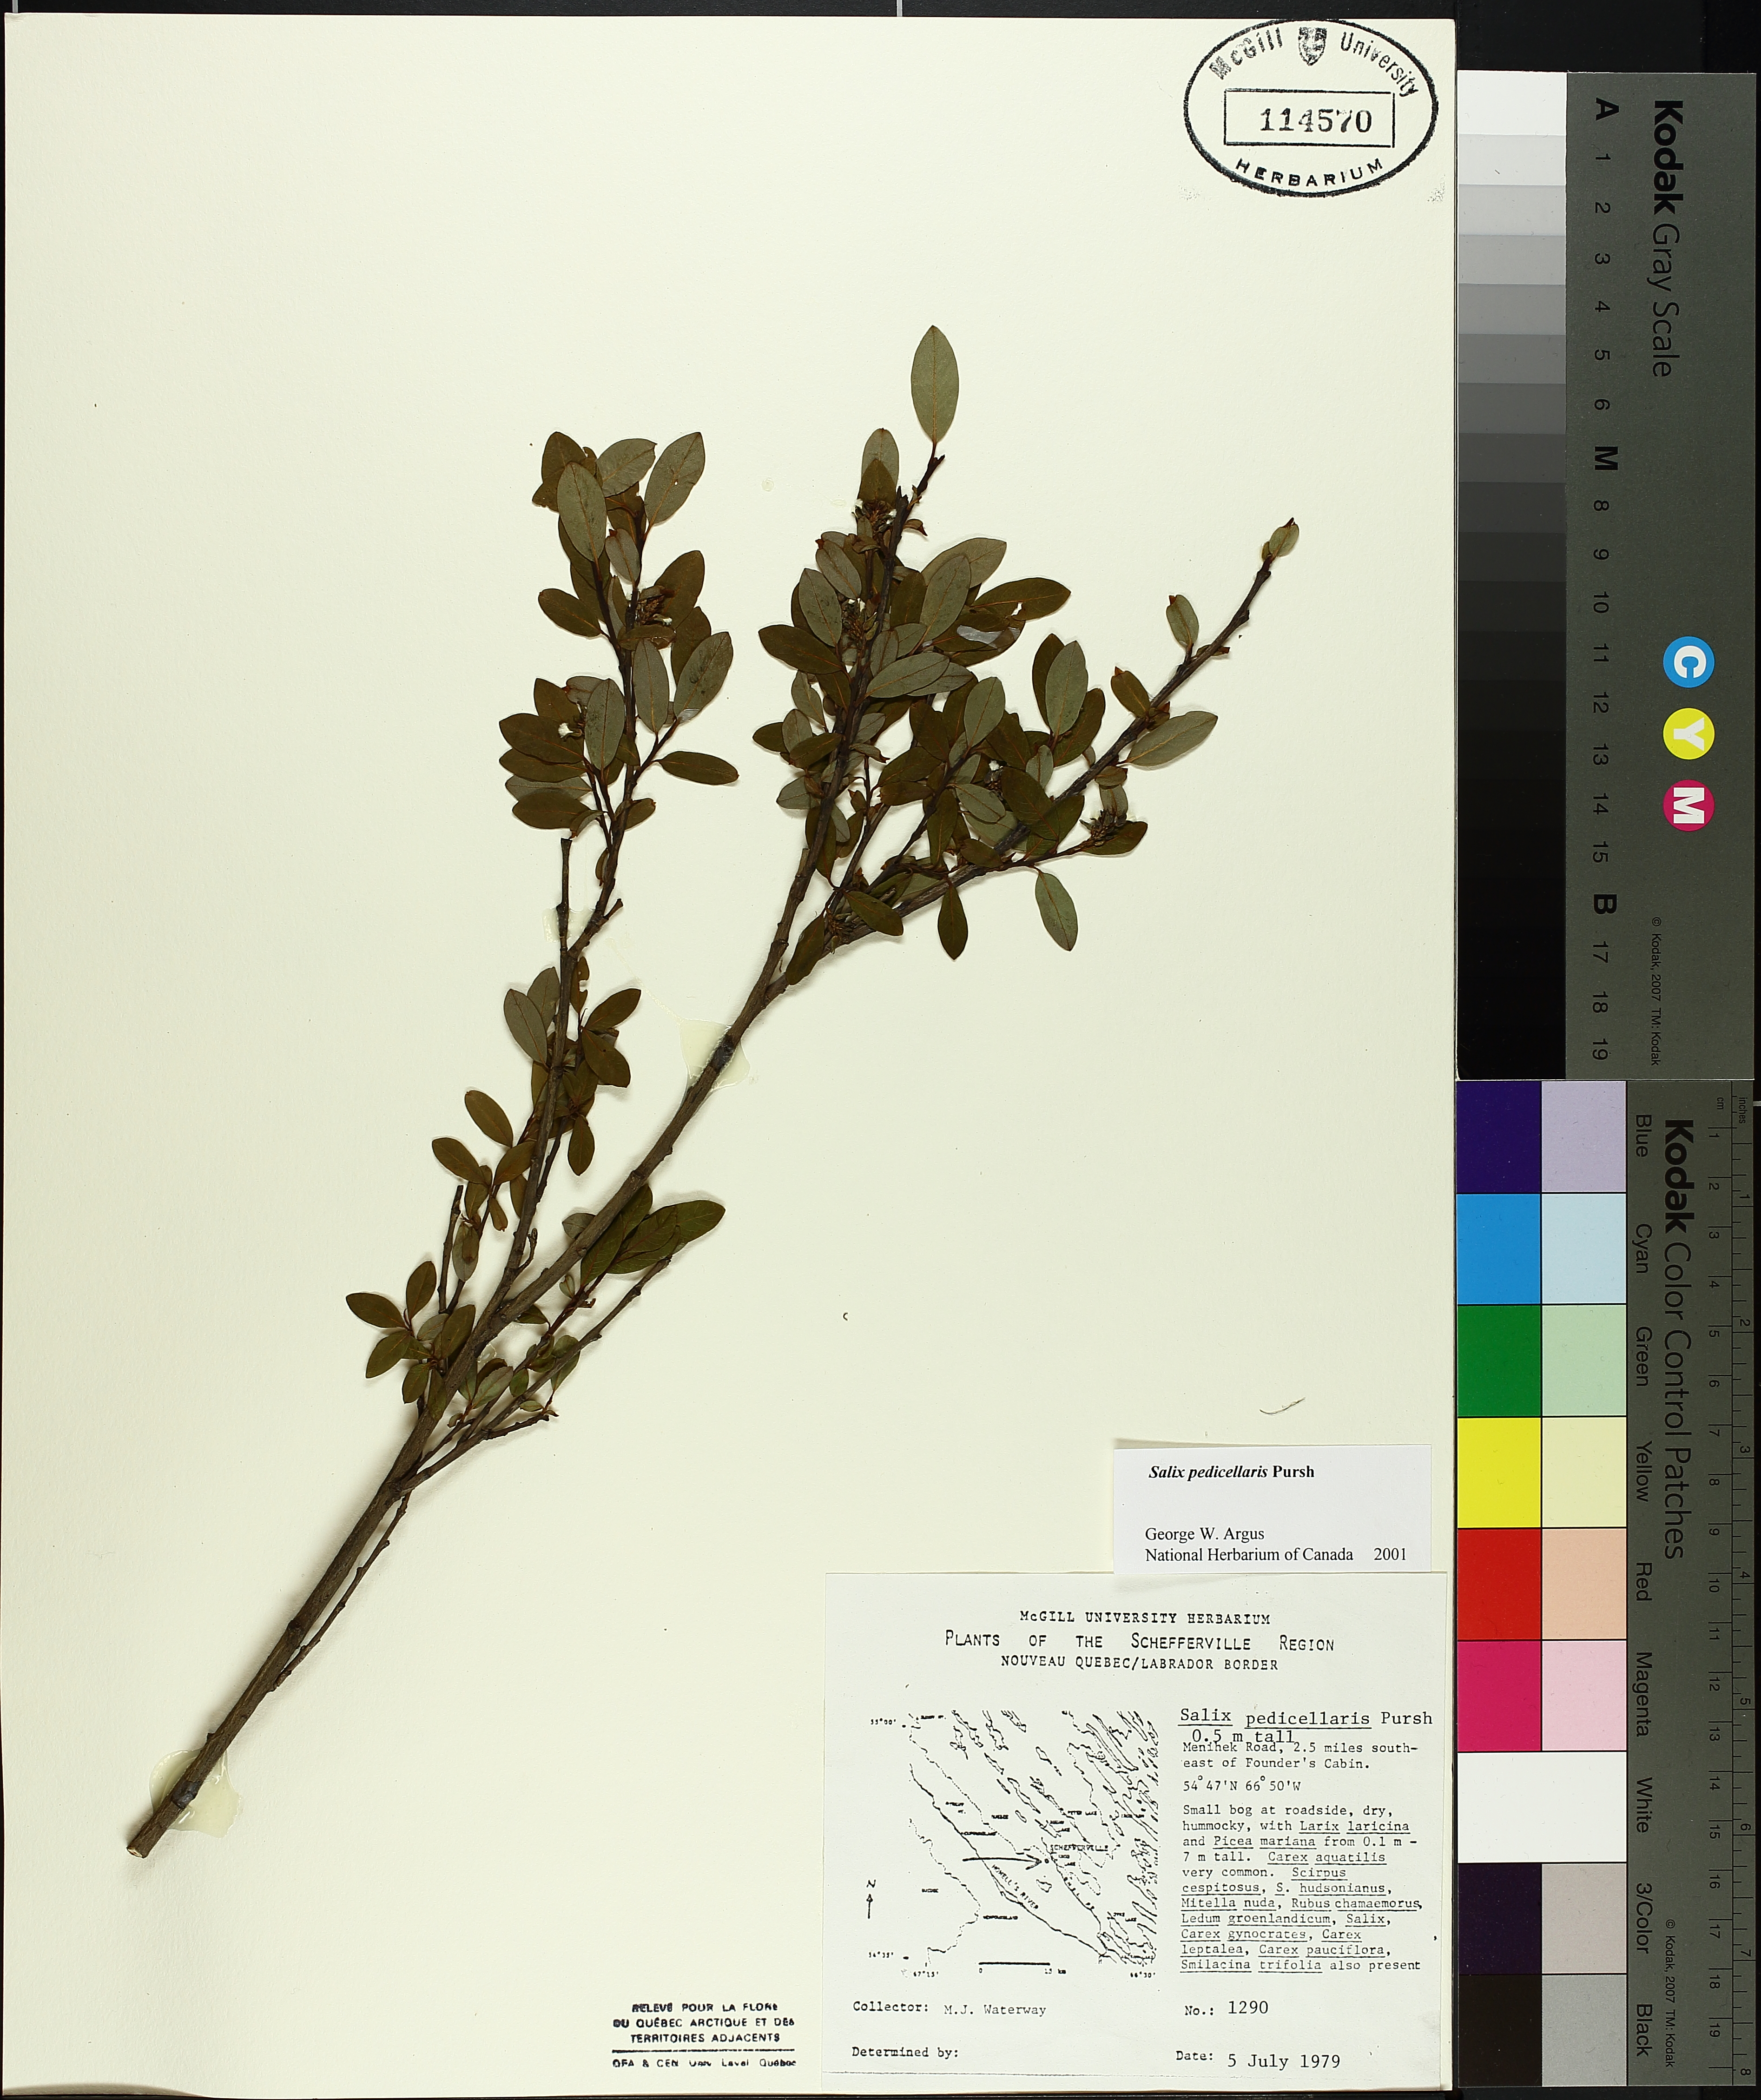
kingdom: Plantae
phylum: Tracheophyta
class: Liliopsida
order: Poales
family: Cyperaceae
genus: Carex
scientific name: Carex leptalea
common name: Bristly-stalked sedge
